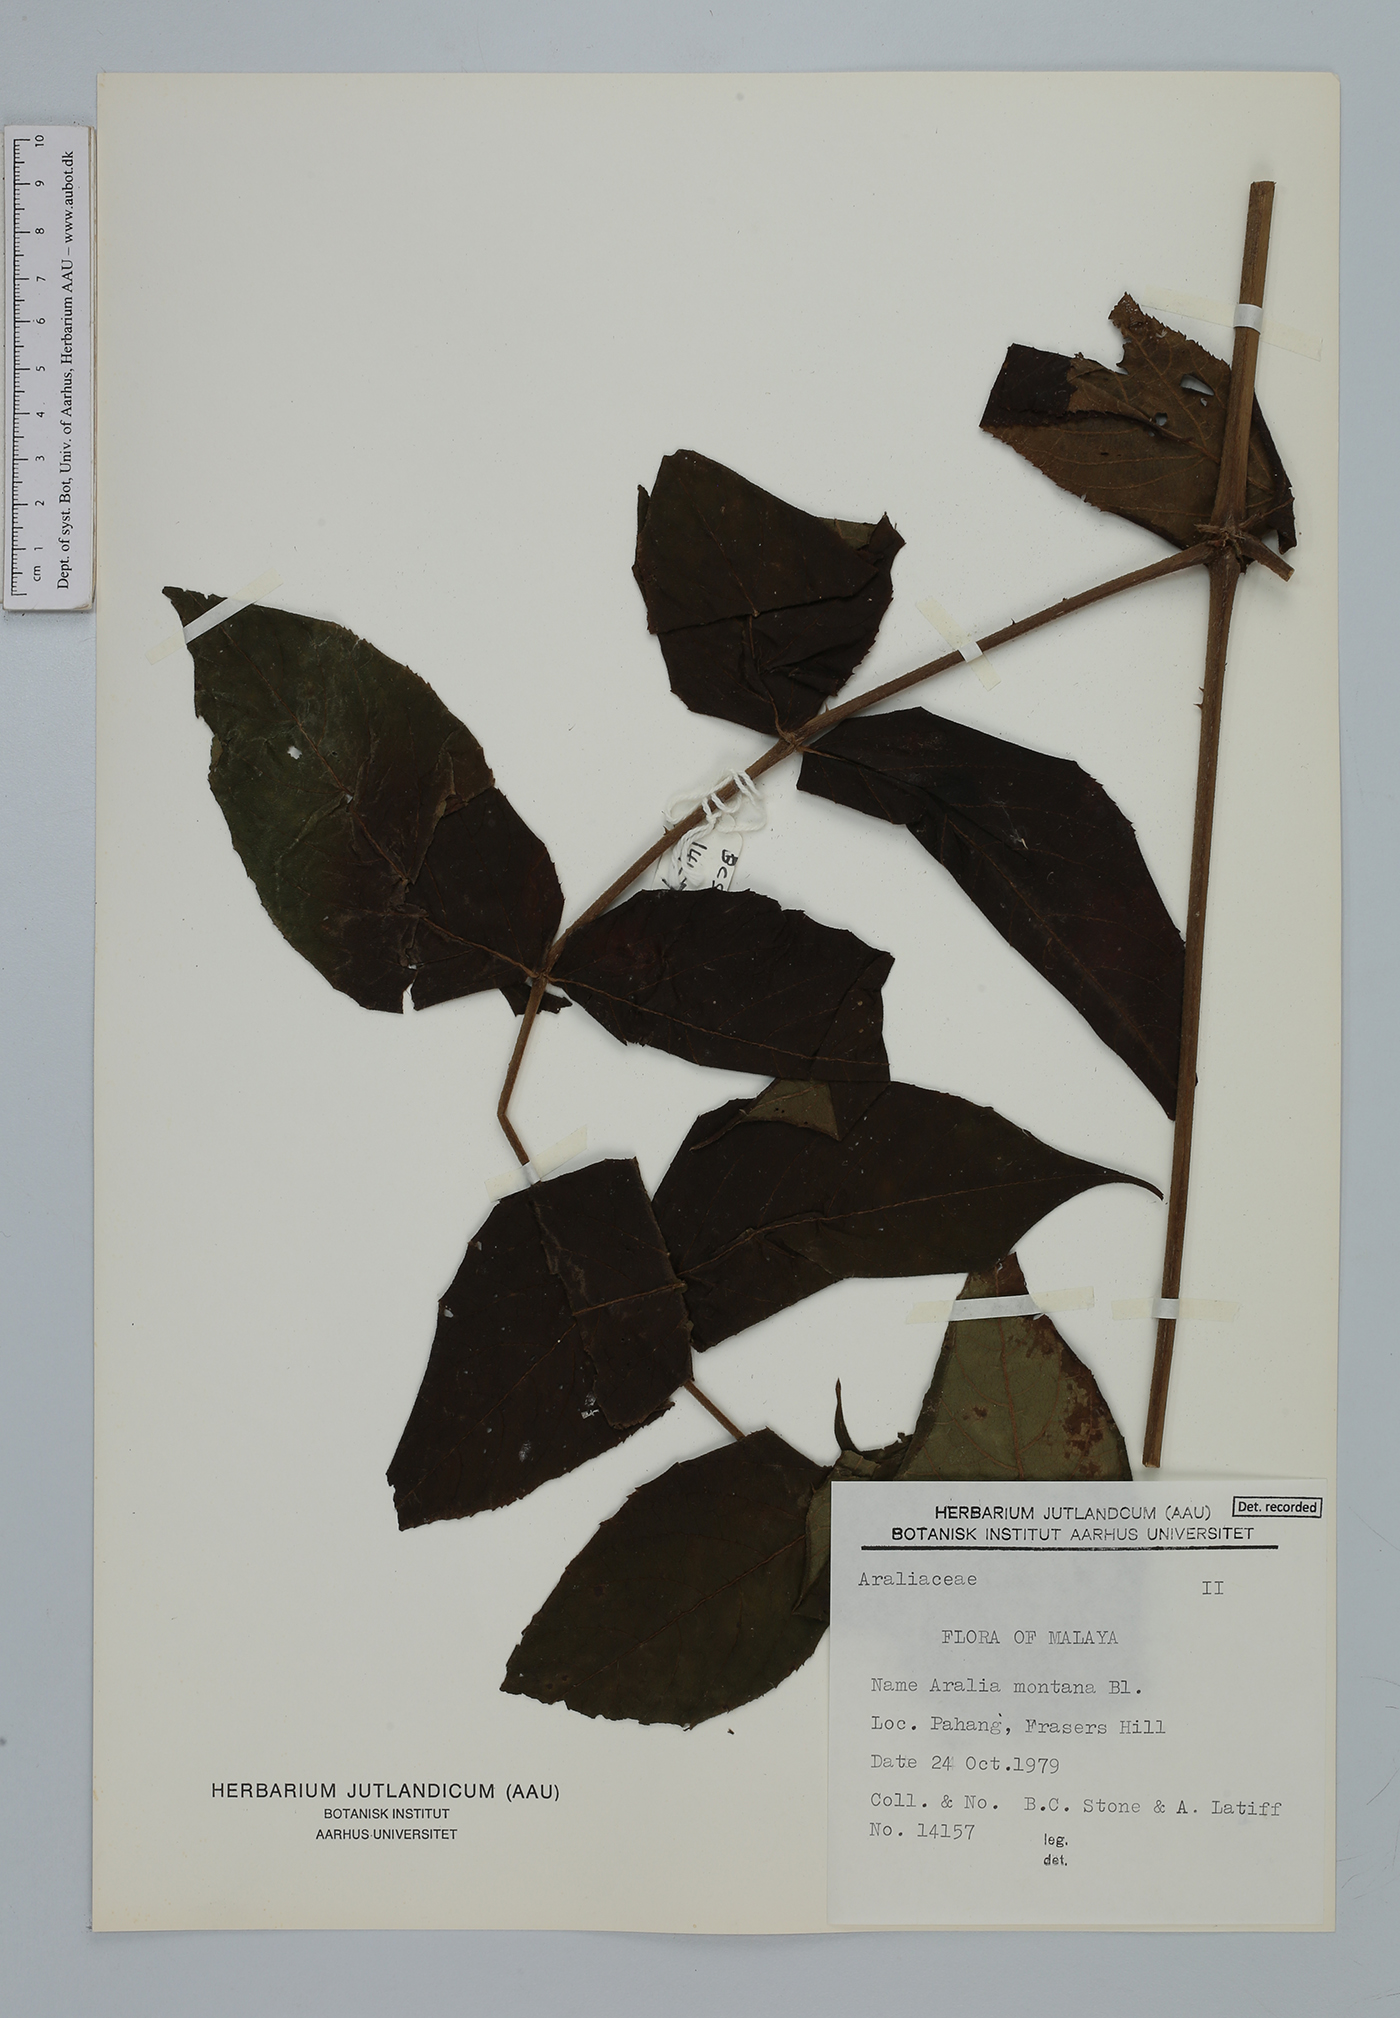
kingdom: Plantae
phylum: Tracheophyta
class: Magnoliopsida
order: Apiales
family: Araliaceae
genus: Aralia
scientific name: Aralia montana
